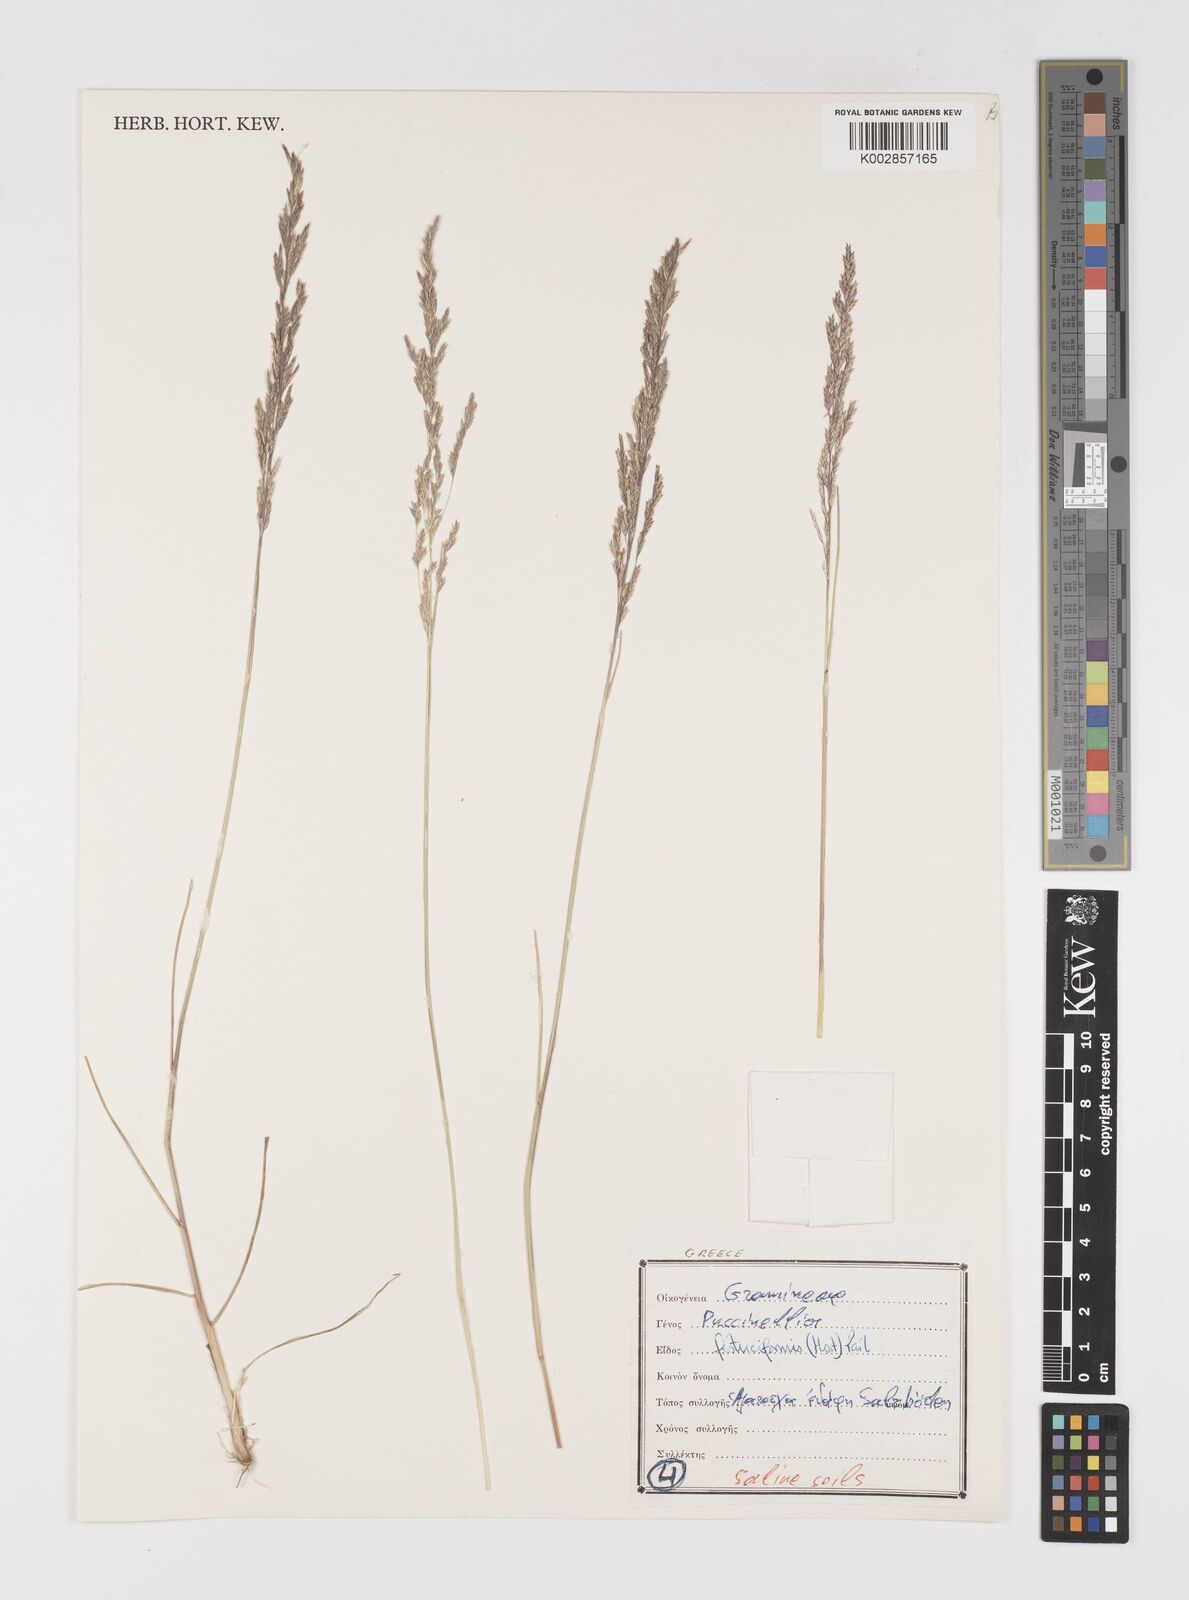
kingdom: Plantae
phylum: Tracheophyta
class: Liliopsida
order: Poales
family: Poaceae
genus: Puccinellia
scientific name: Puccinellia festuciformis
